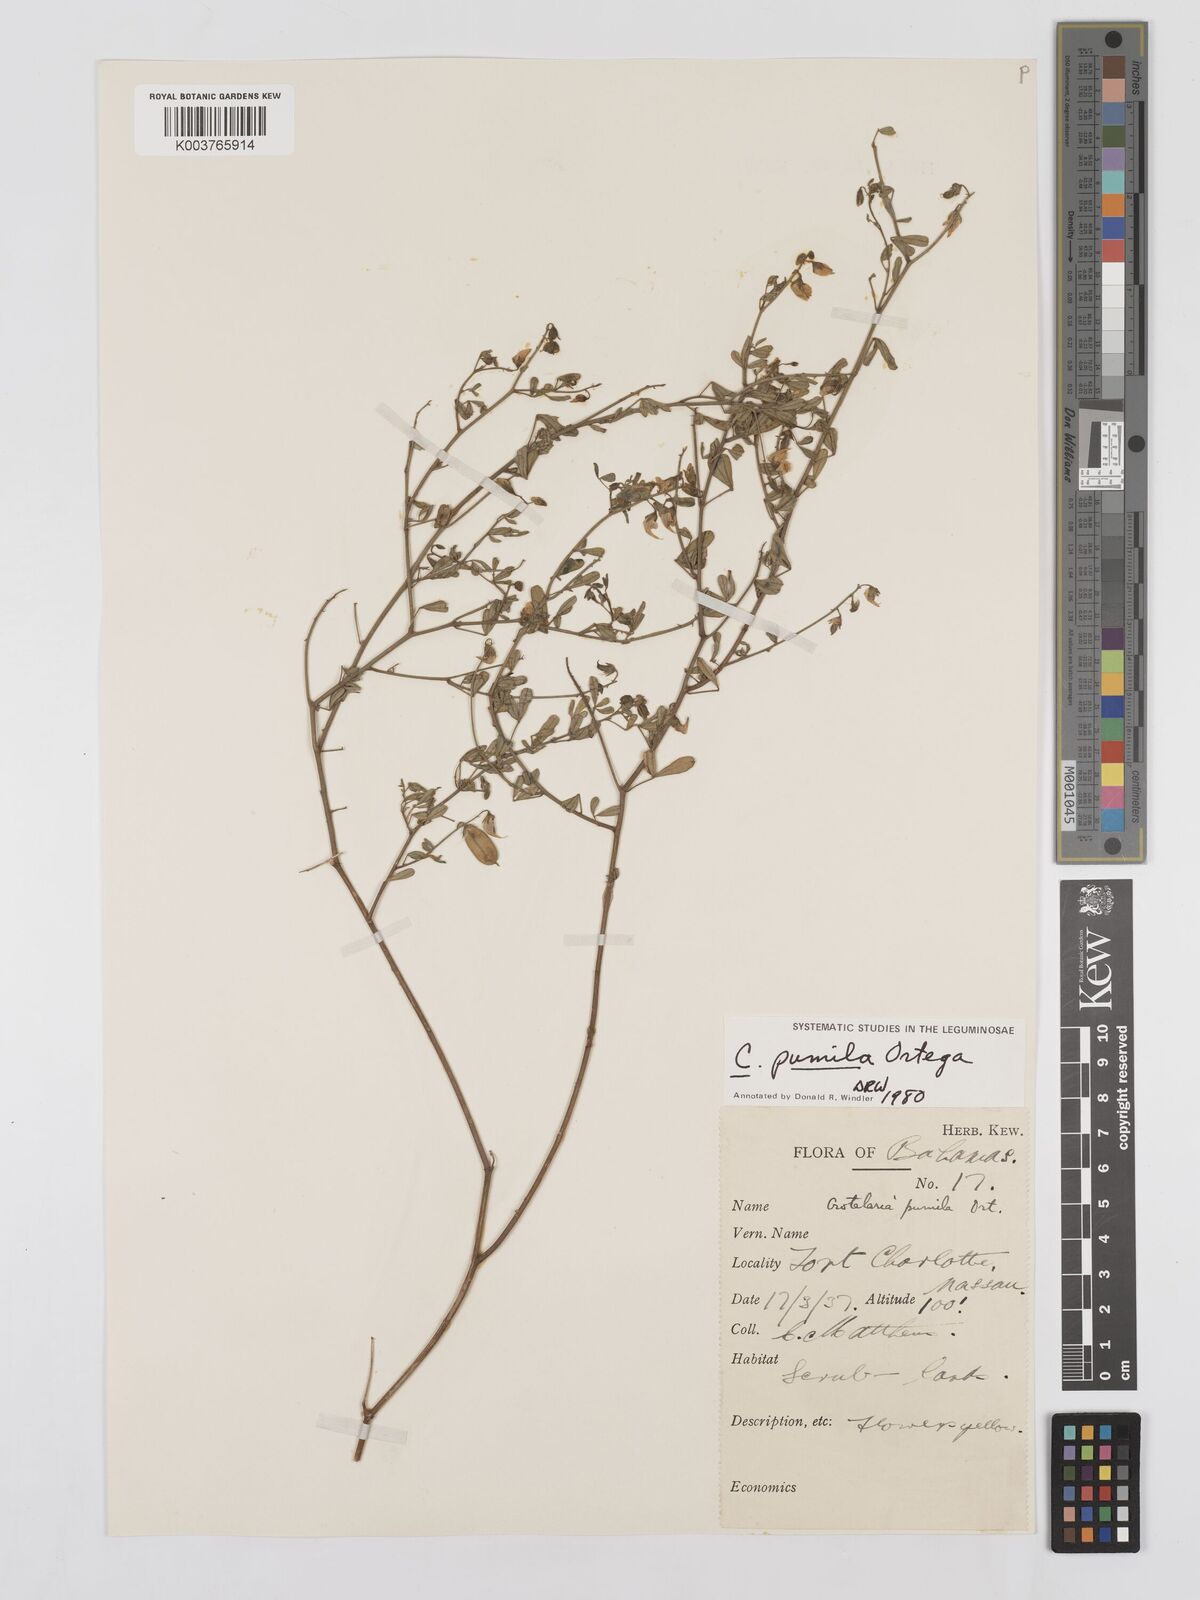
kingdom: Plantae
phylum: Tracheophyta
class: Magnoliopsida
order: Fabales
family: Fabaceae
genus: Crotalaria
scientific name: Crotalaria pumila
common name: Low rattlebox
